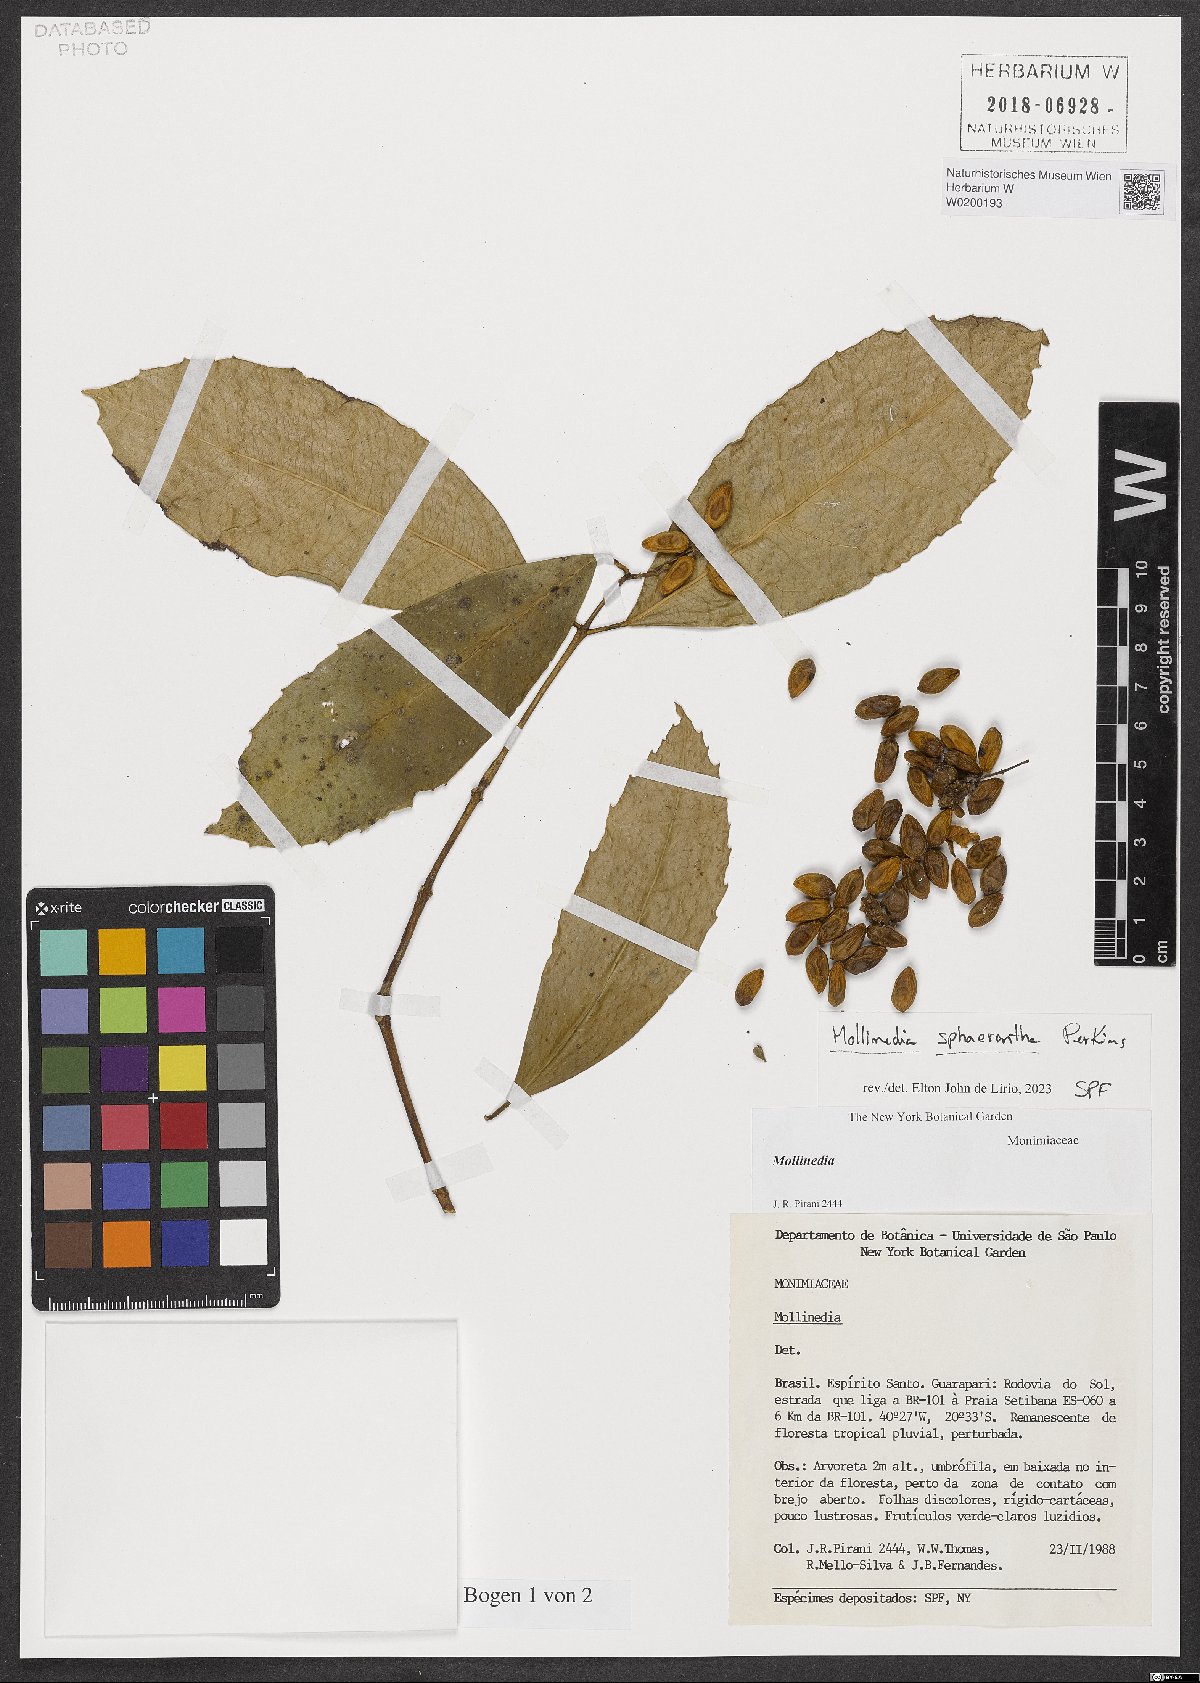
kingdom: Plantae
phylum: Tracheophyta
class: Magnoliopsida
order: Laurales
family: Monimiaceae
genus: Mollinedia
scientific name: Mollinedia glabra
